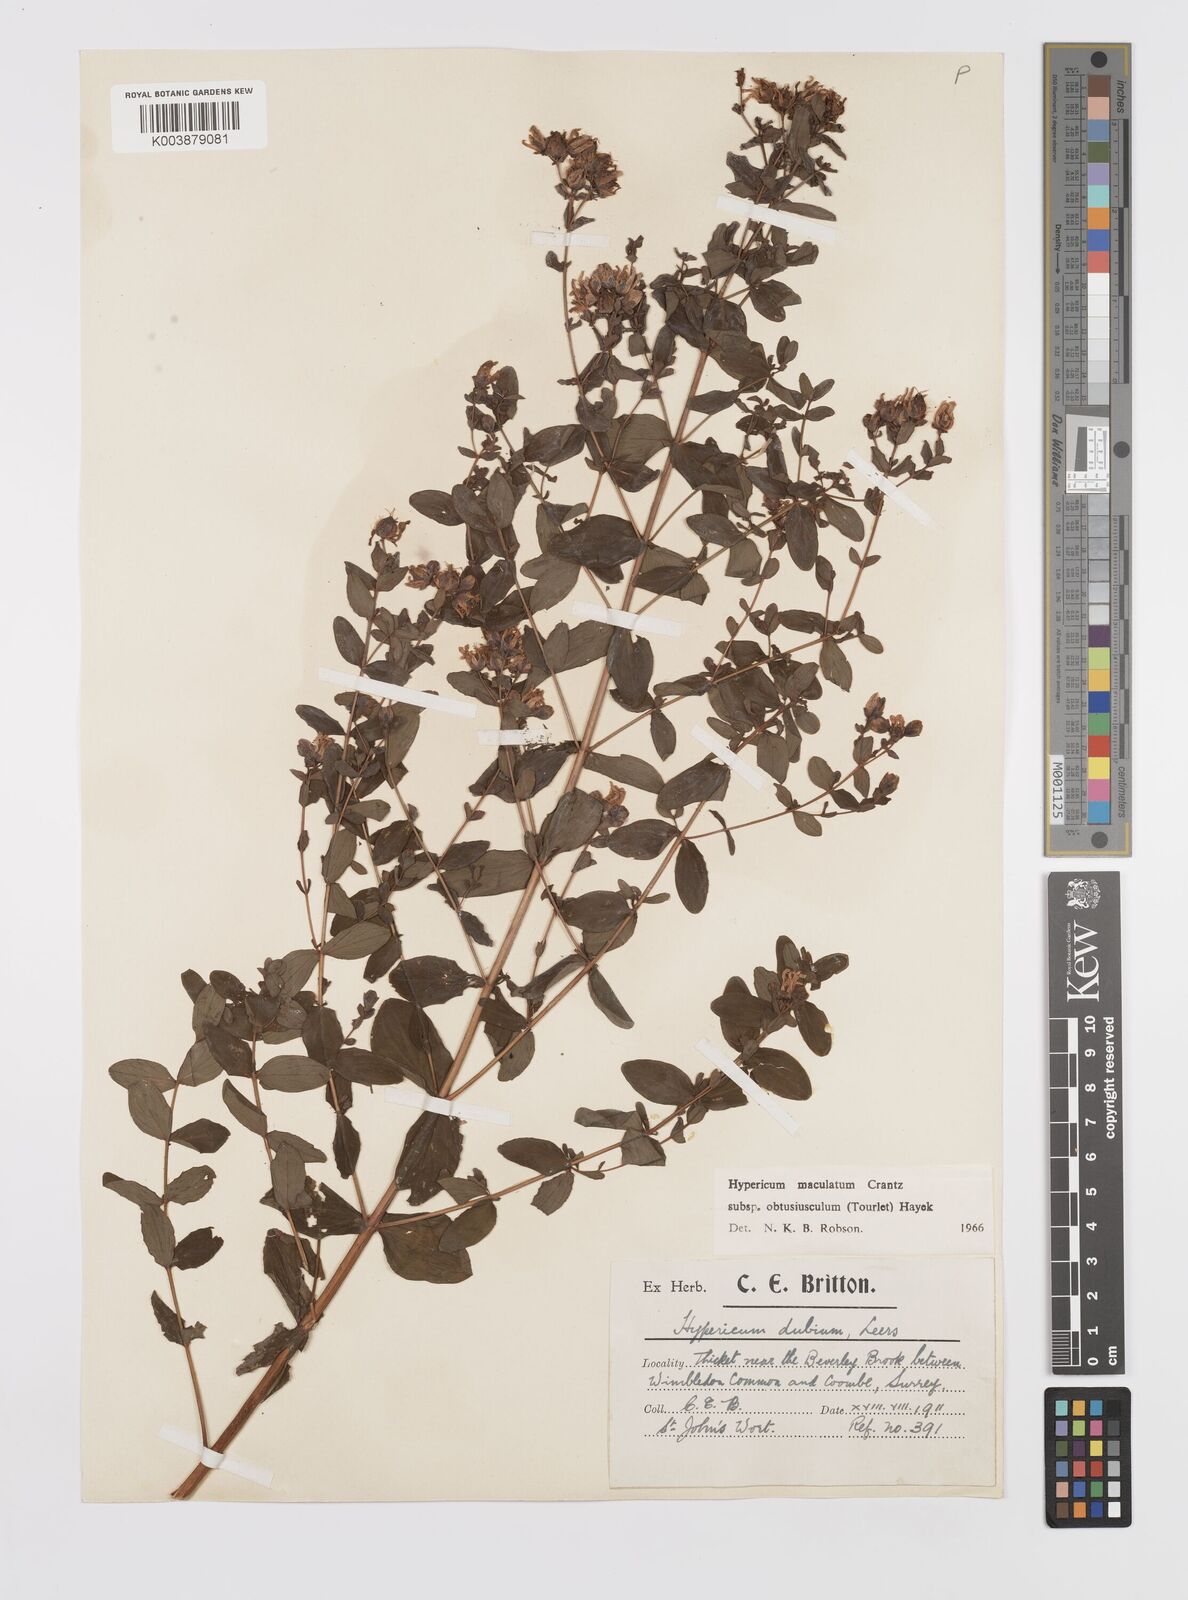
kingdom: Plantae
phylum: Tracheophyta
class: Magnoliopsida
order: Malpighiales
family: Hypericaceae
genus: Hypericum
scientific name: Hypericum dubium
